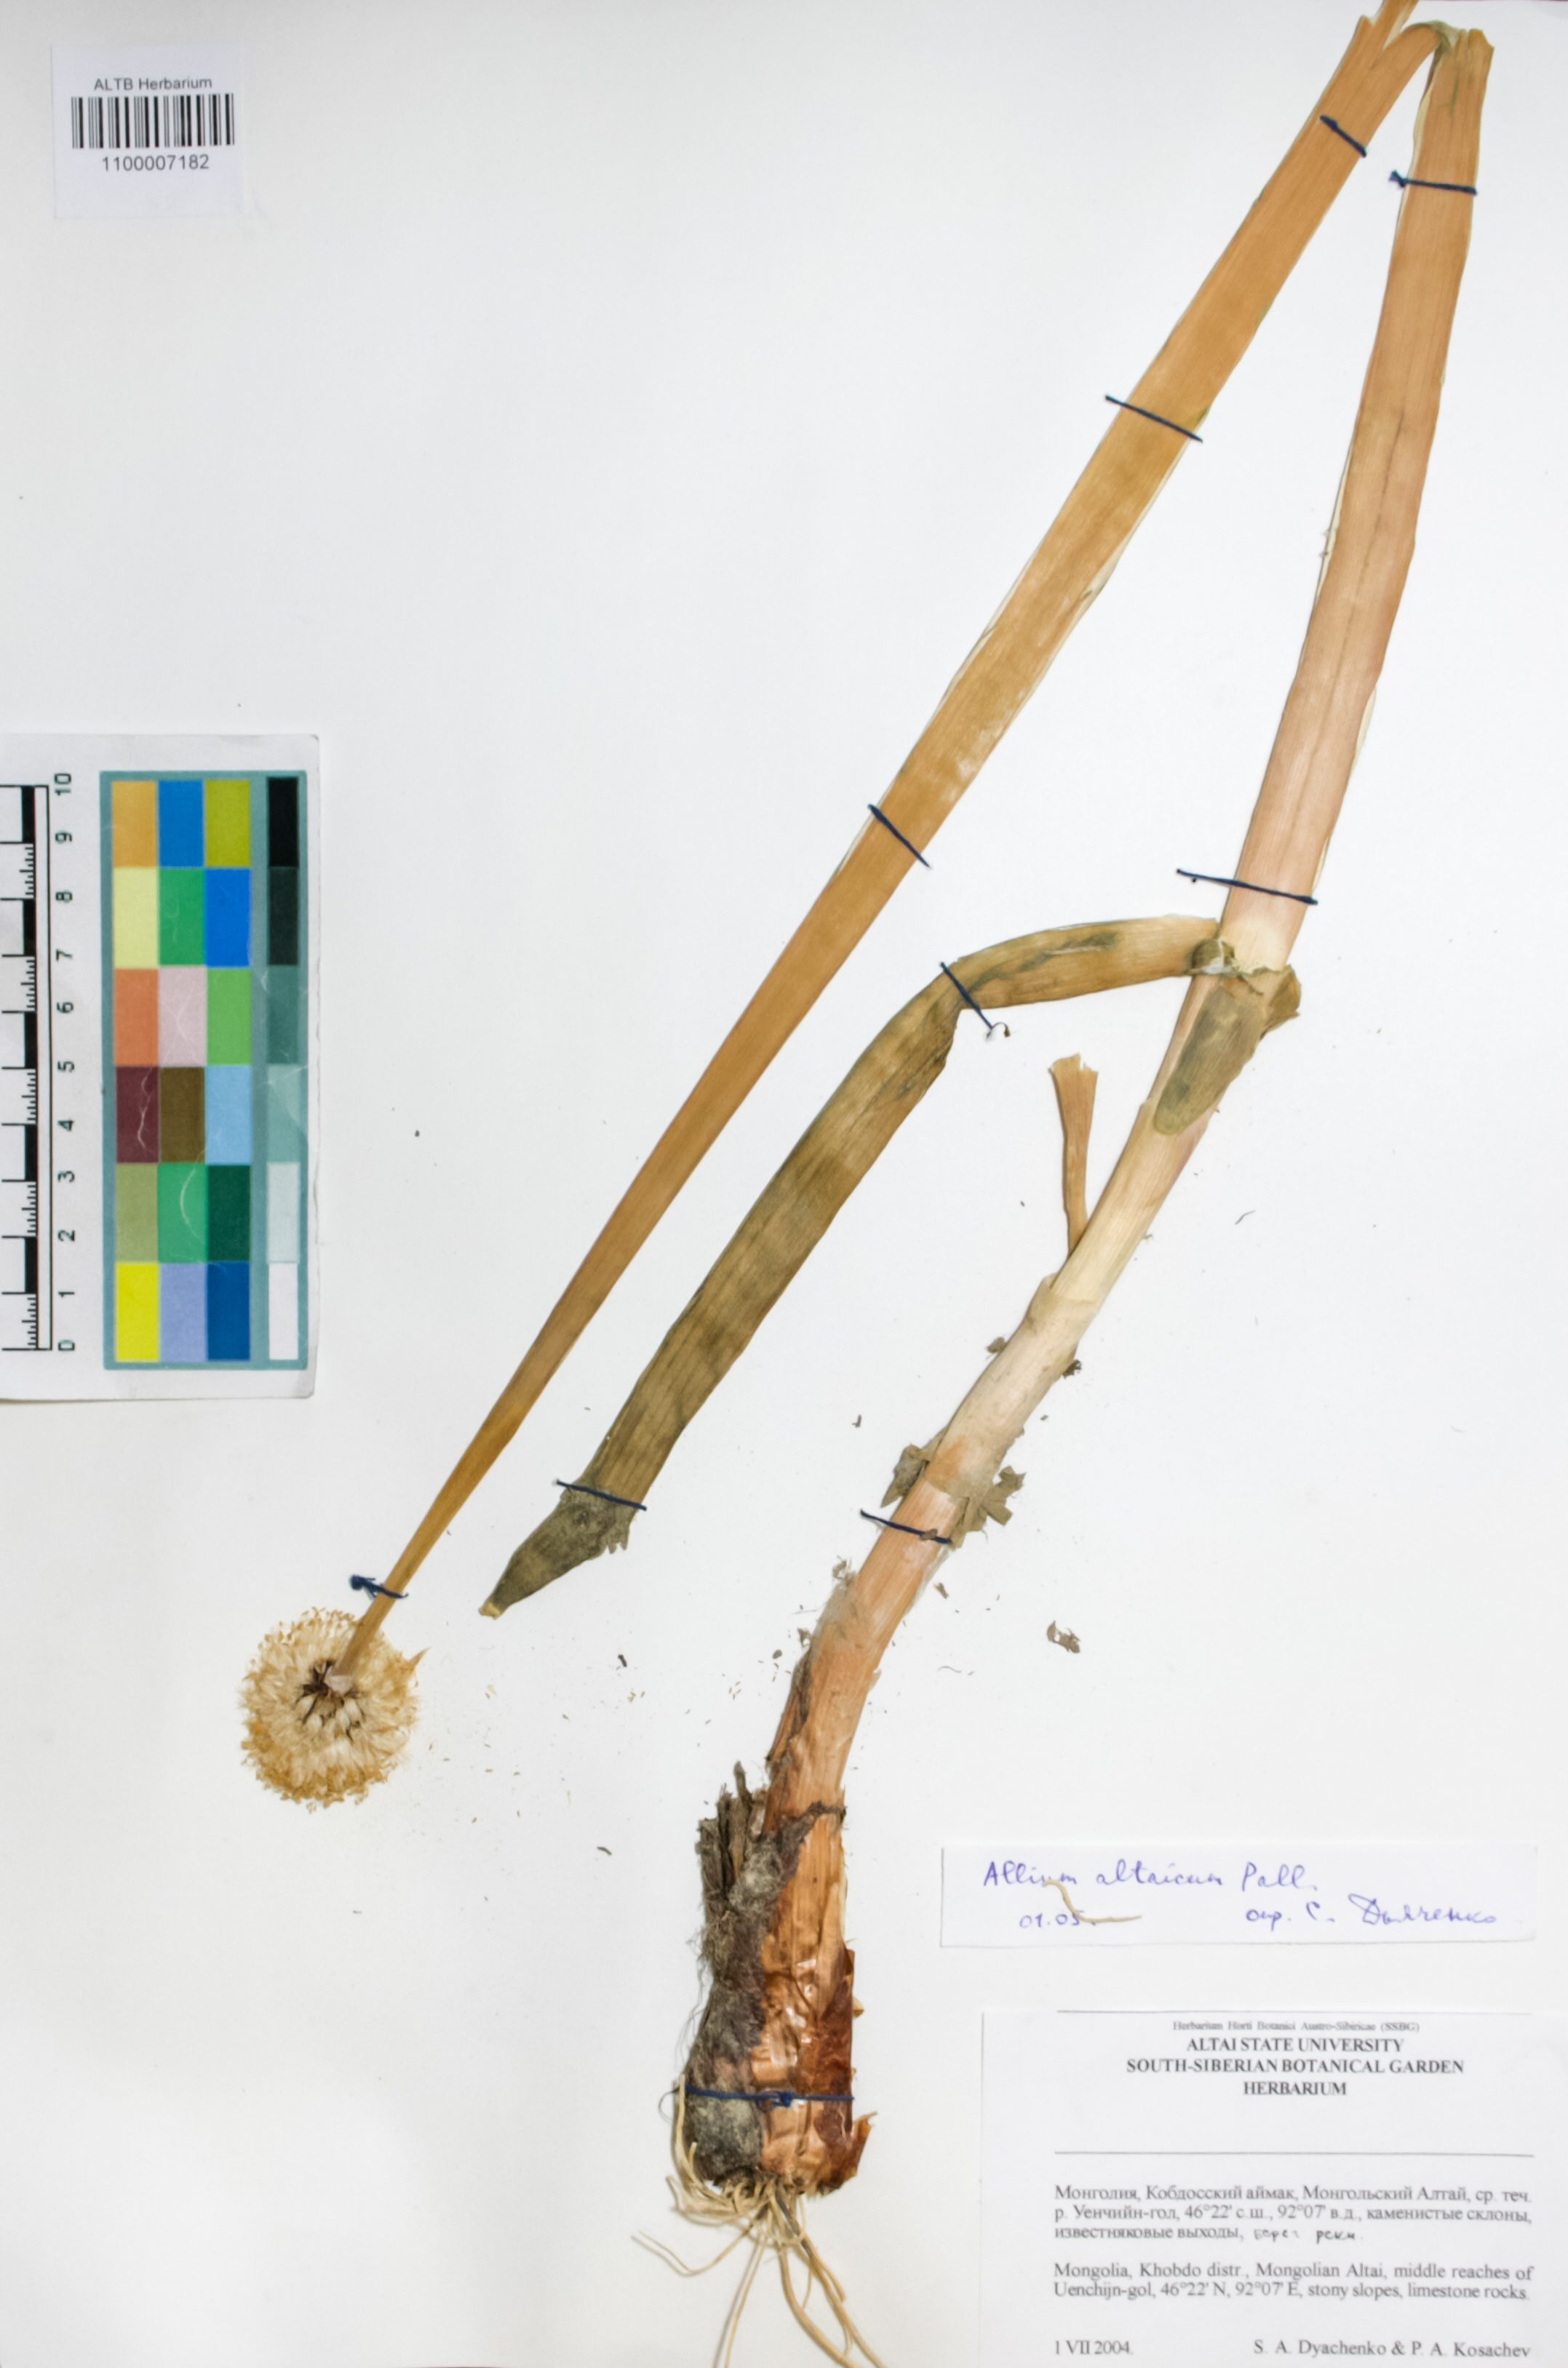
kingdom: Plantae
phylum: Tracheophyta
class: Liliopsida
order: Asparagales
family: Amaryllidaceae
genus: Allium
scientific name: Allium altaicum
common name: Altai onion
